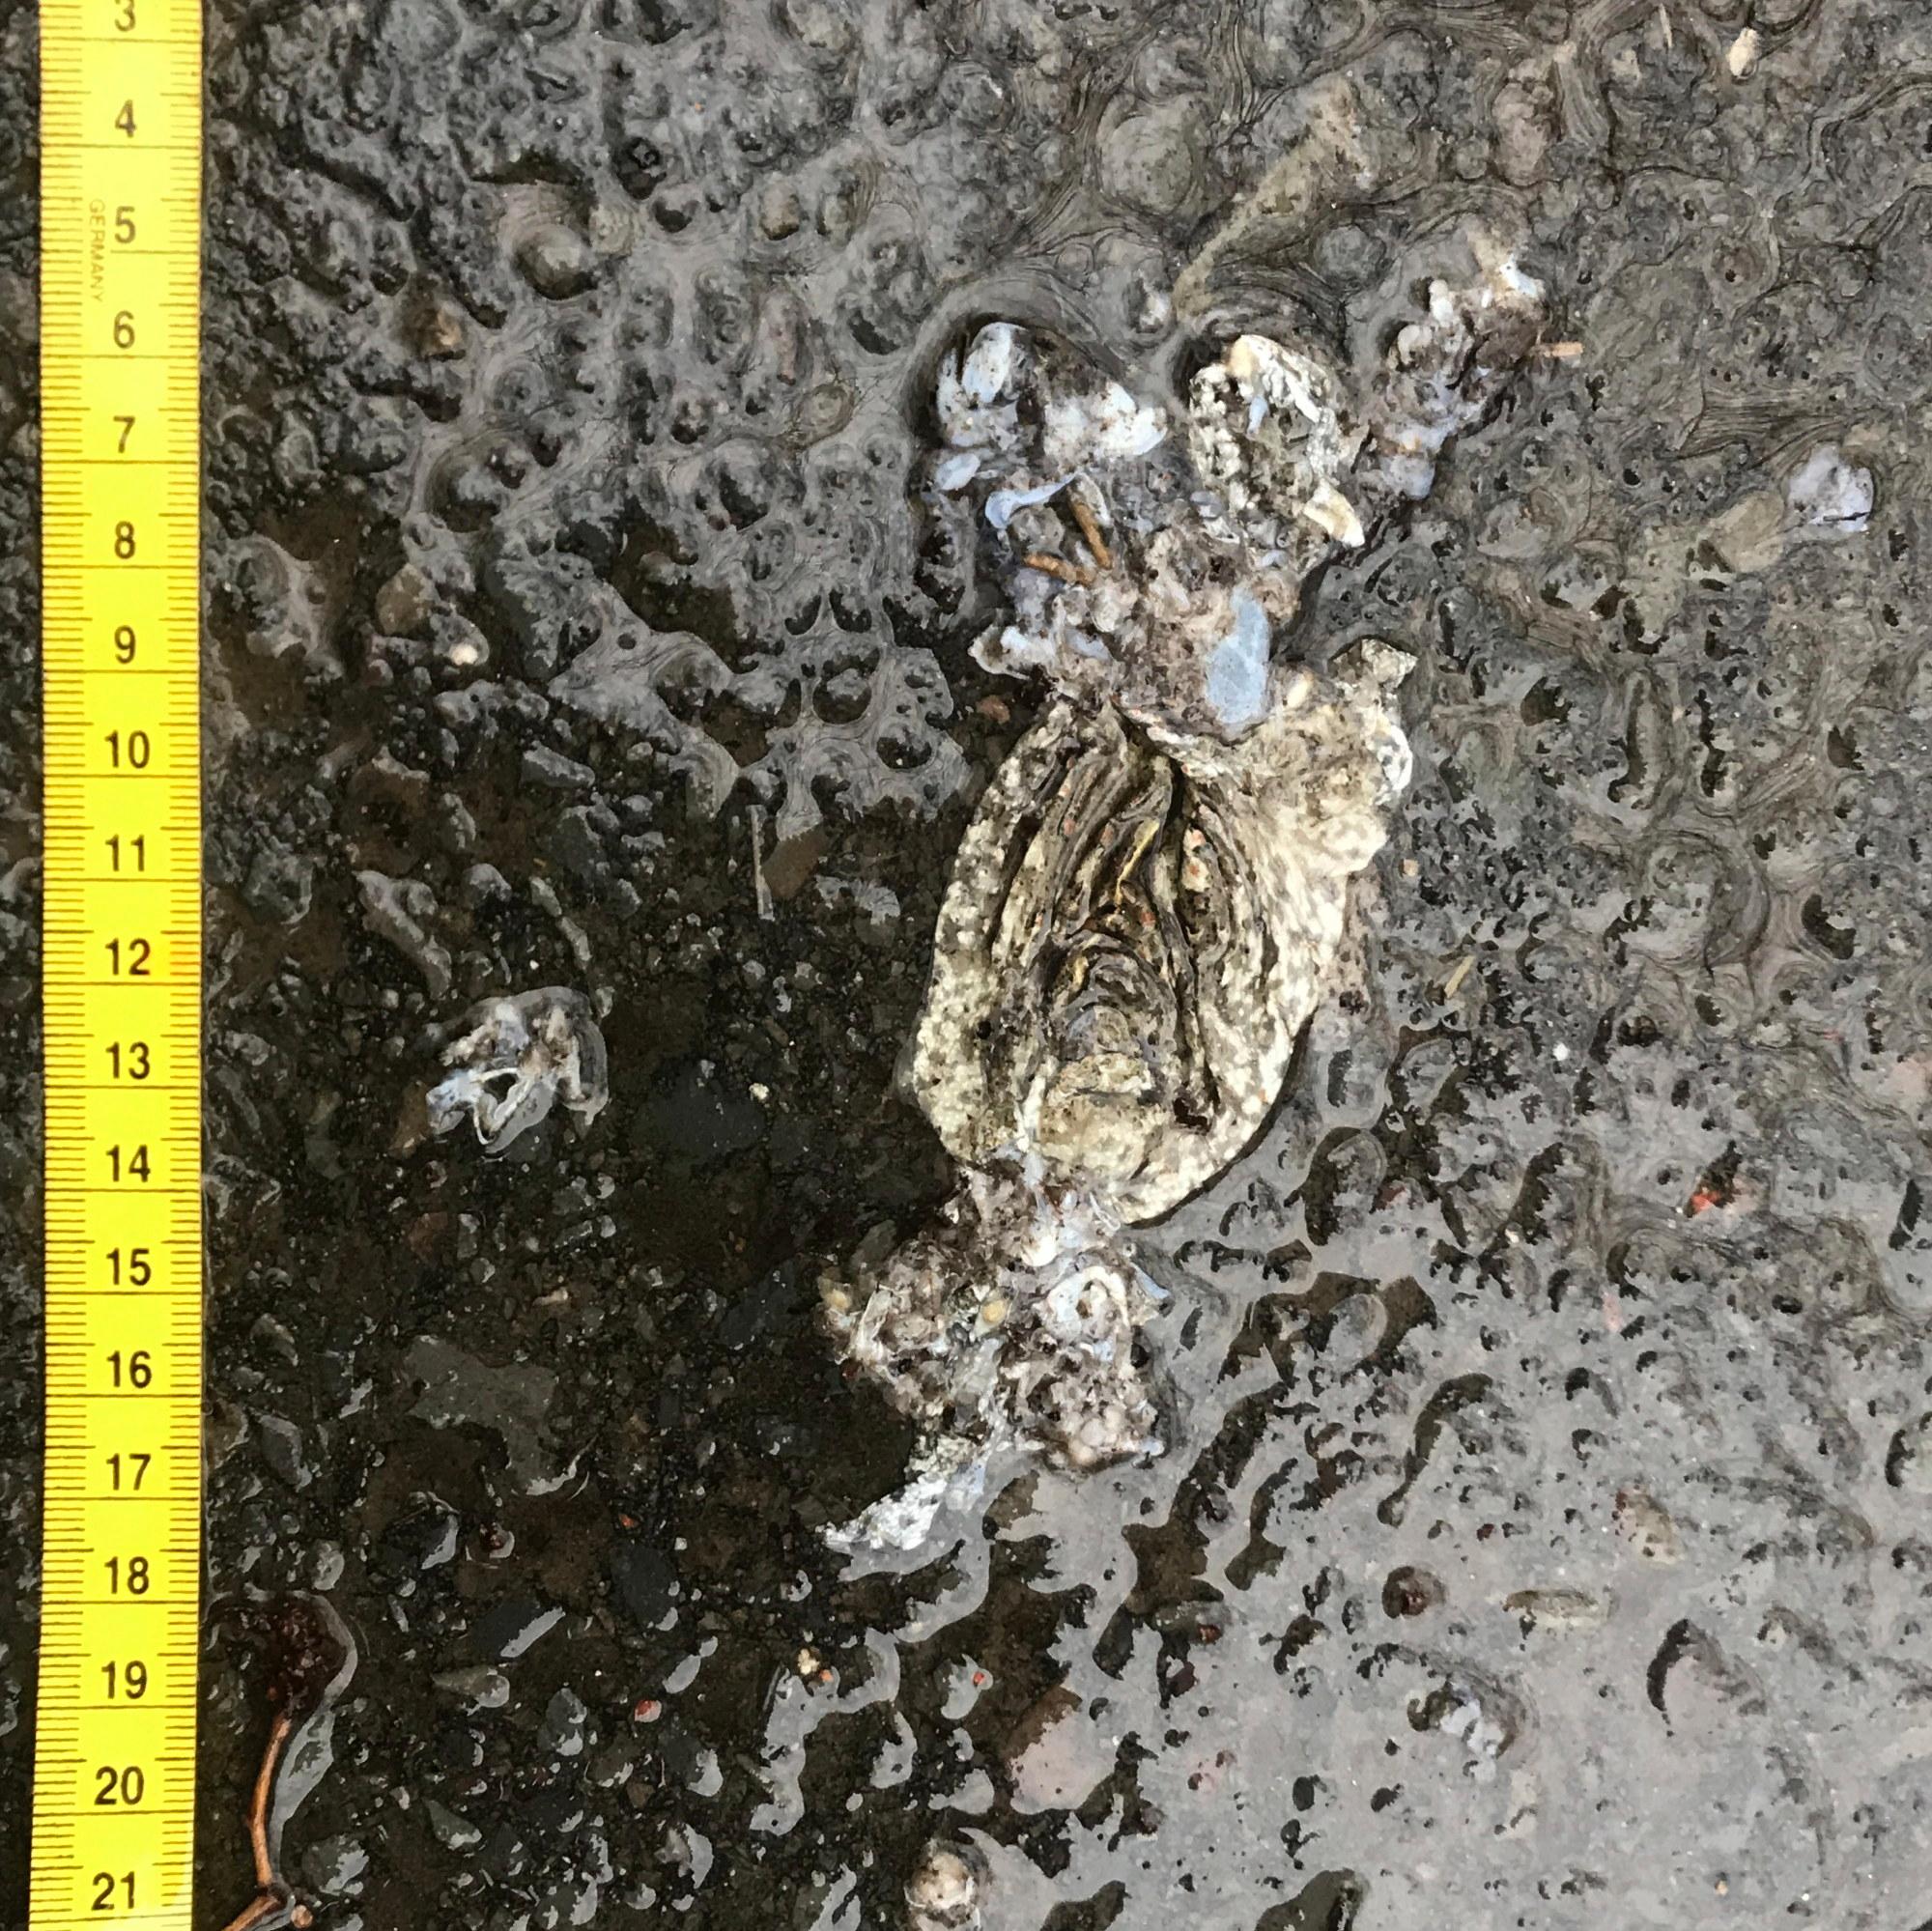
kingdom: Animalia
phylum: Chordata
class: Amphibia
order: Anura
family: Bufonidae
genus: Bufo
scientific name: Bufo bufo
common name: Common toad
